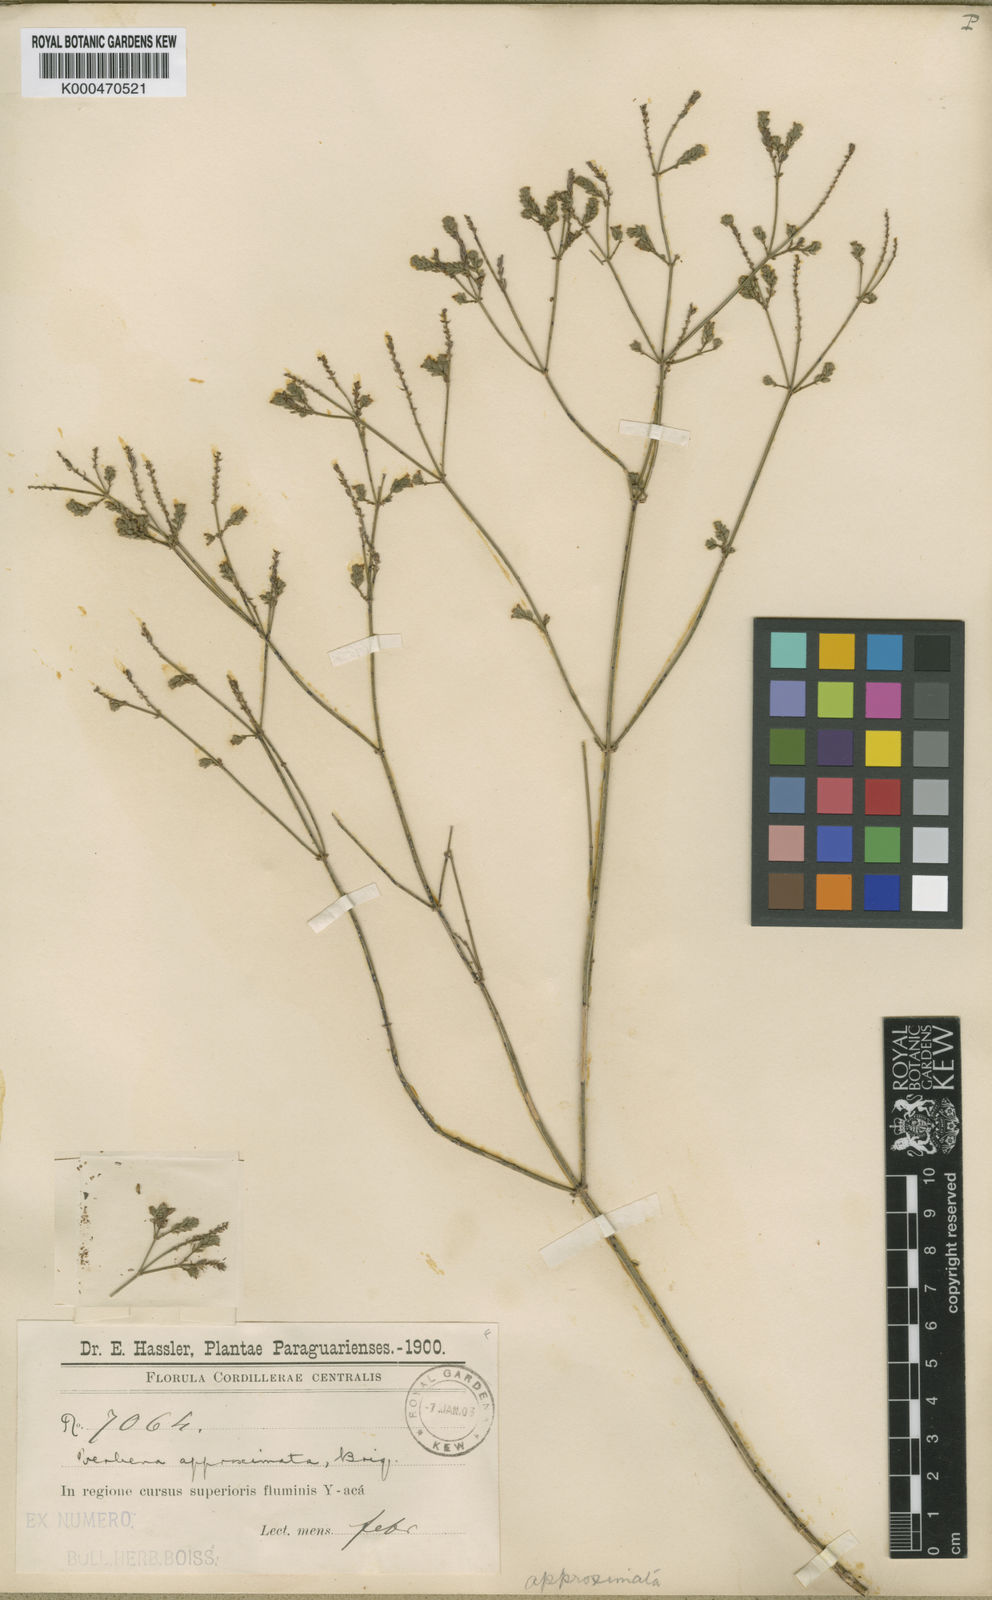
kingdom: Plantae
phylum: Tracheophyta
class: Magnoliopsida
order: Lamiales
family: Verbenaceae
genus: Verbena
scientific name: Verbena brasiliensis
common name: Brazilian vervain
